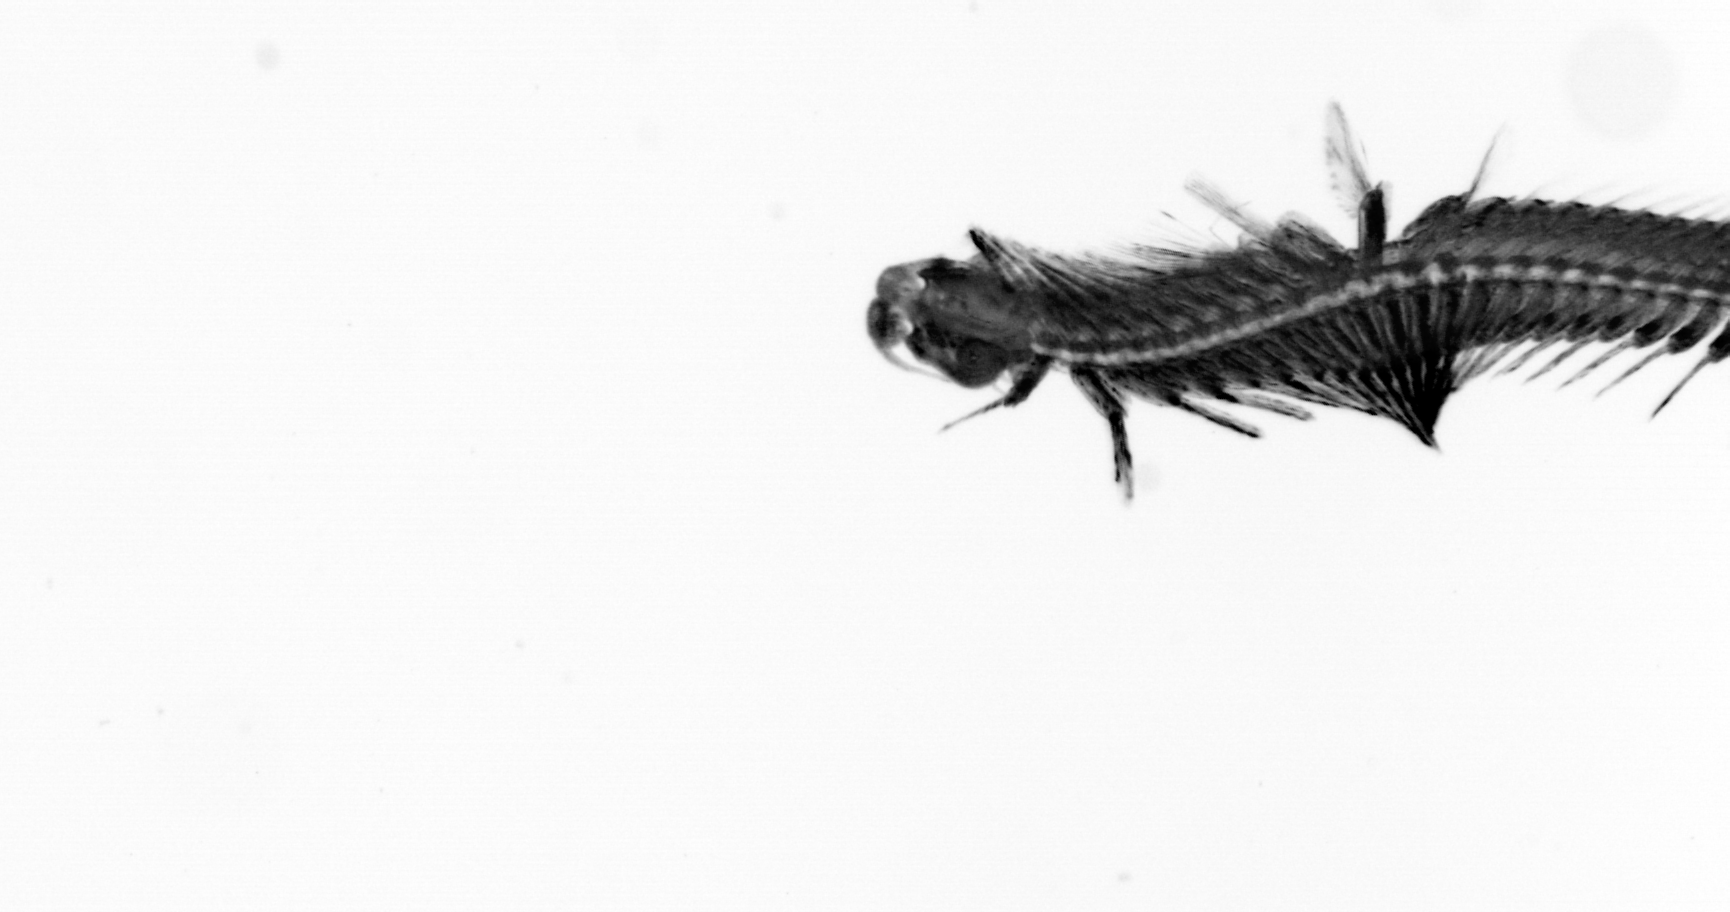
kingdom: Animalia
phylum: Annelida
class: Polychaeta
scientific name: Polychaeta
